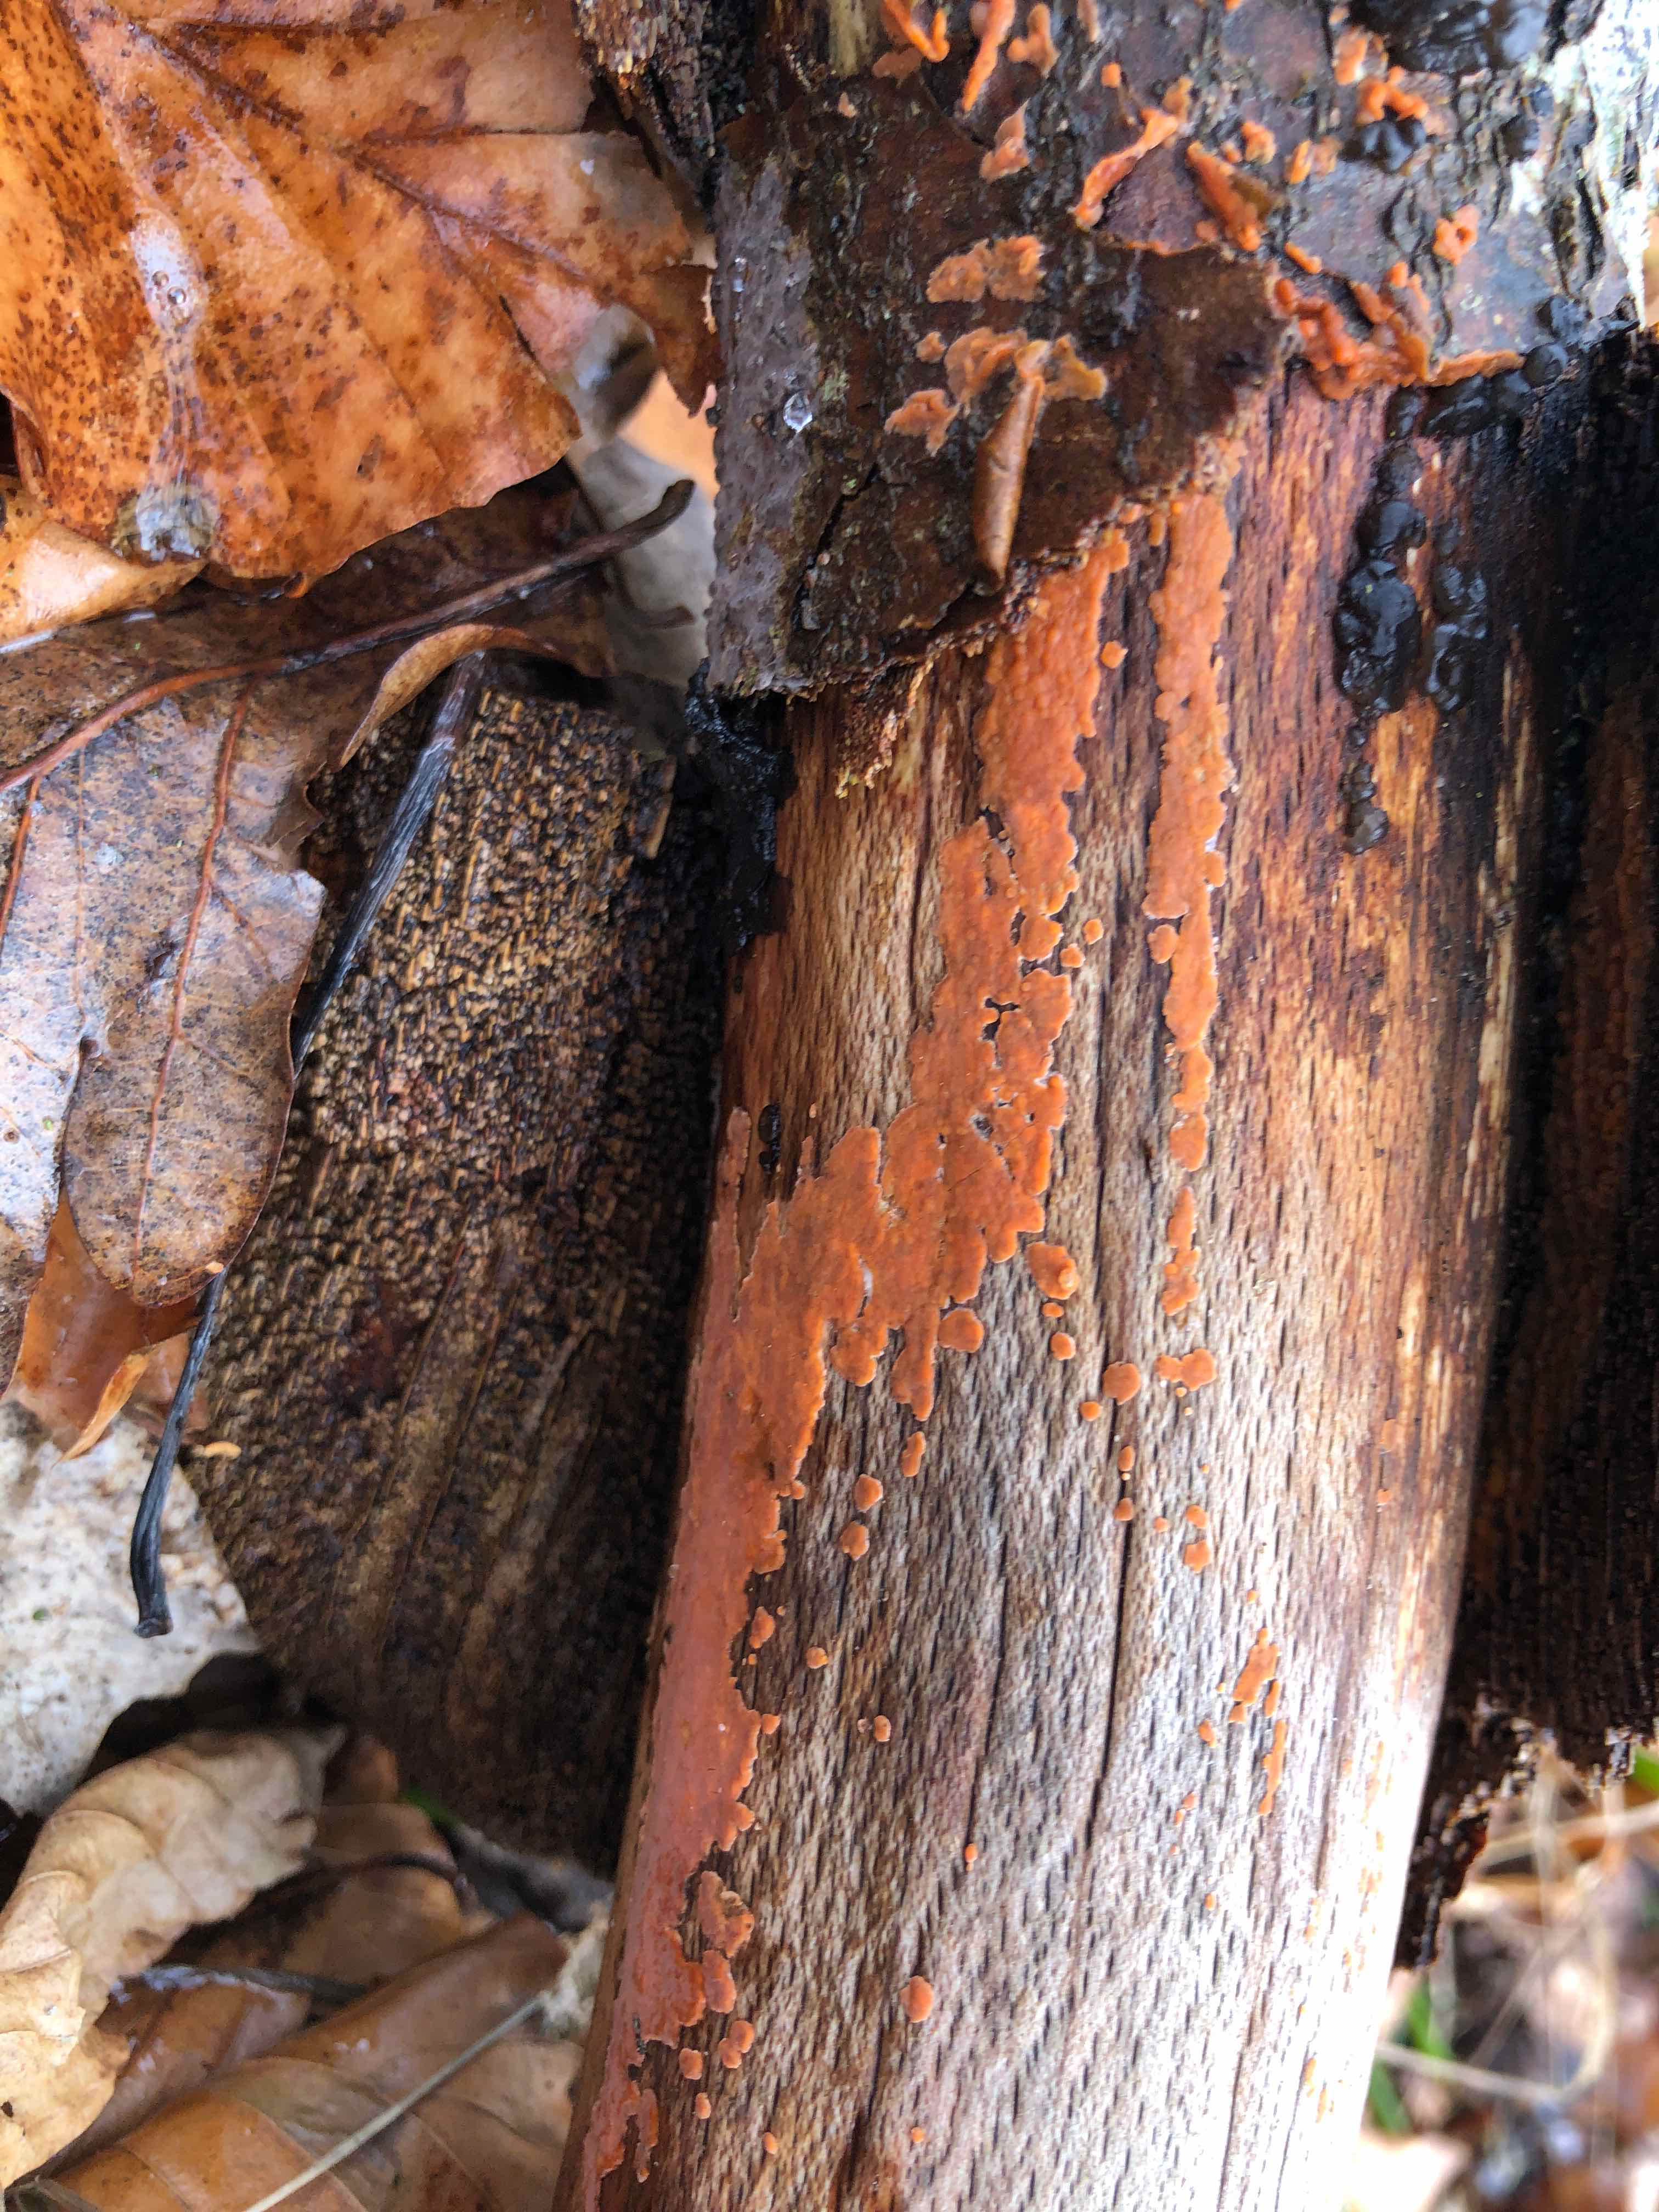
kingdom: Fungi
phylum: Basidiomycota
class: Agaricomycetes
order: Russulales
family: Peniophoraceae
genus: Peniophora
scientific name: Peniophora incarnata
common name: laksefarvet voksskind
